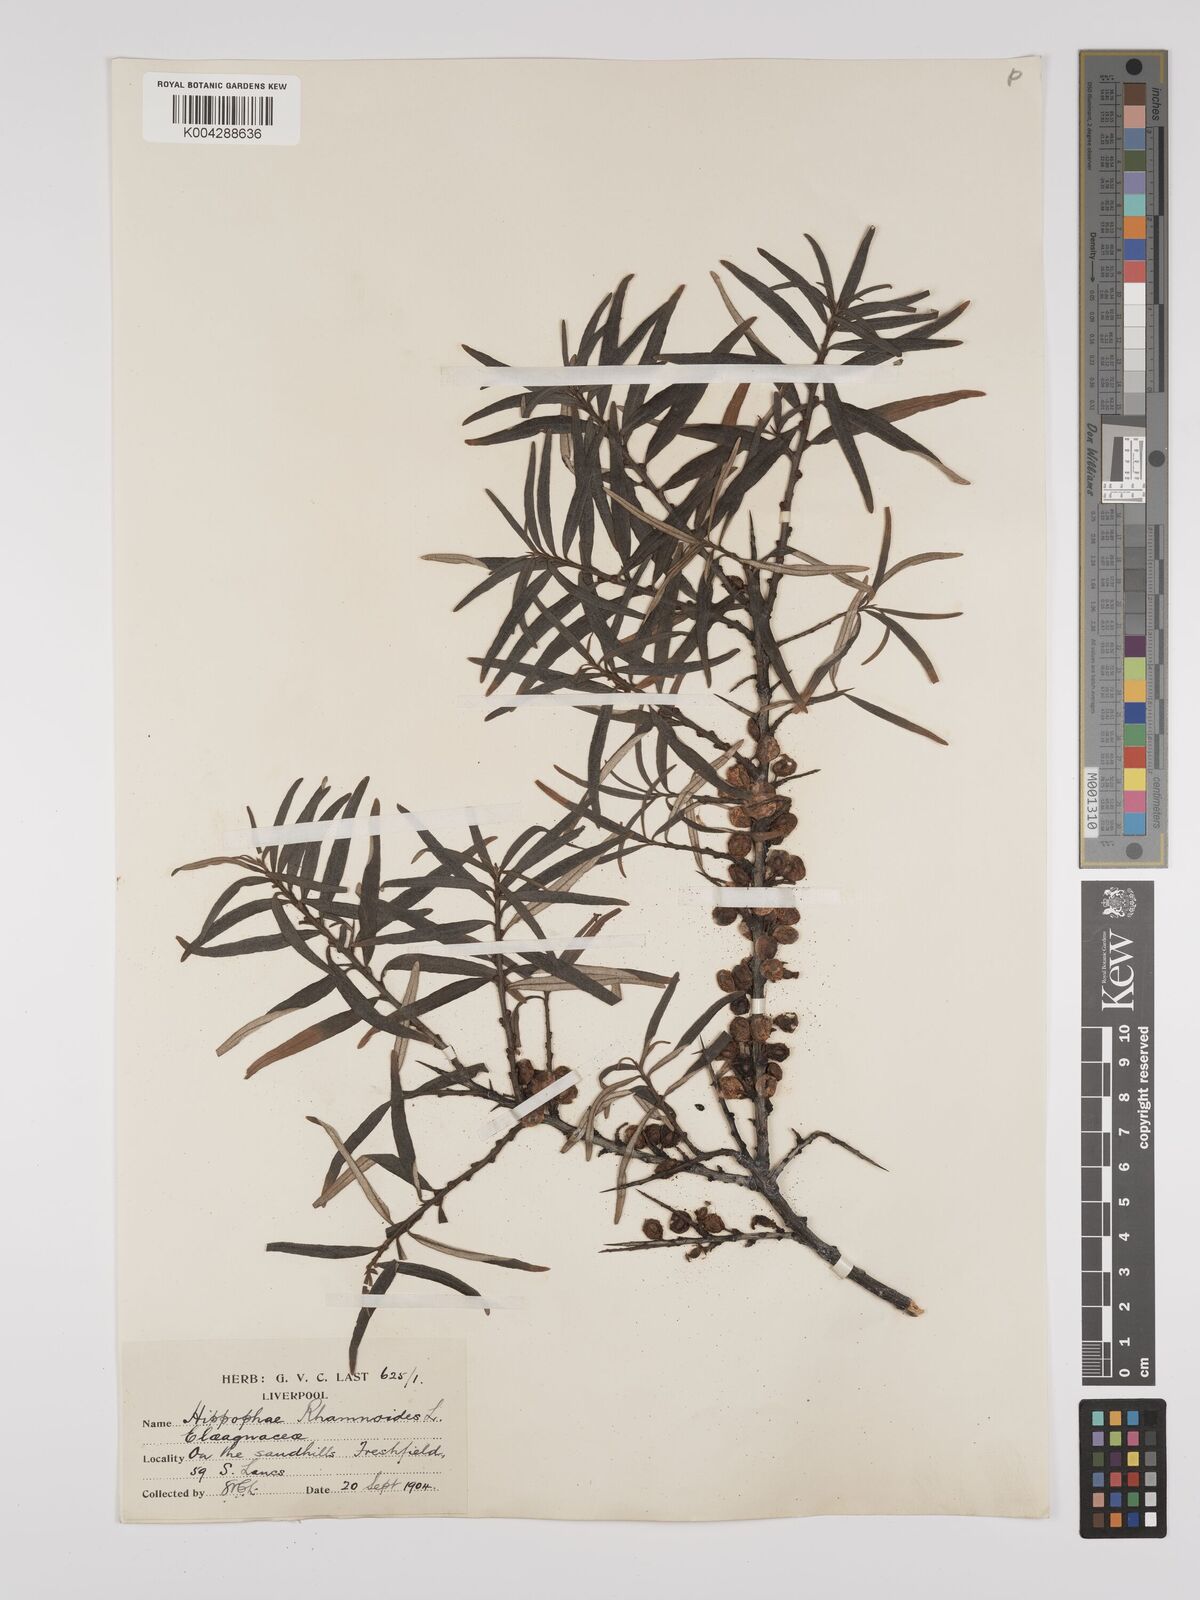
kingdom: Plantae
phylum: Tracheophyta
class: Magnoliopsida
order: Rosales
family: Elaeagnaceae
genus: Hippophae
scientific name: Hippophae rhamnoides
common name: Sea-buckthorn
